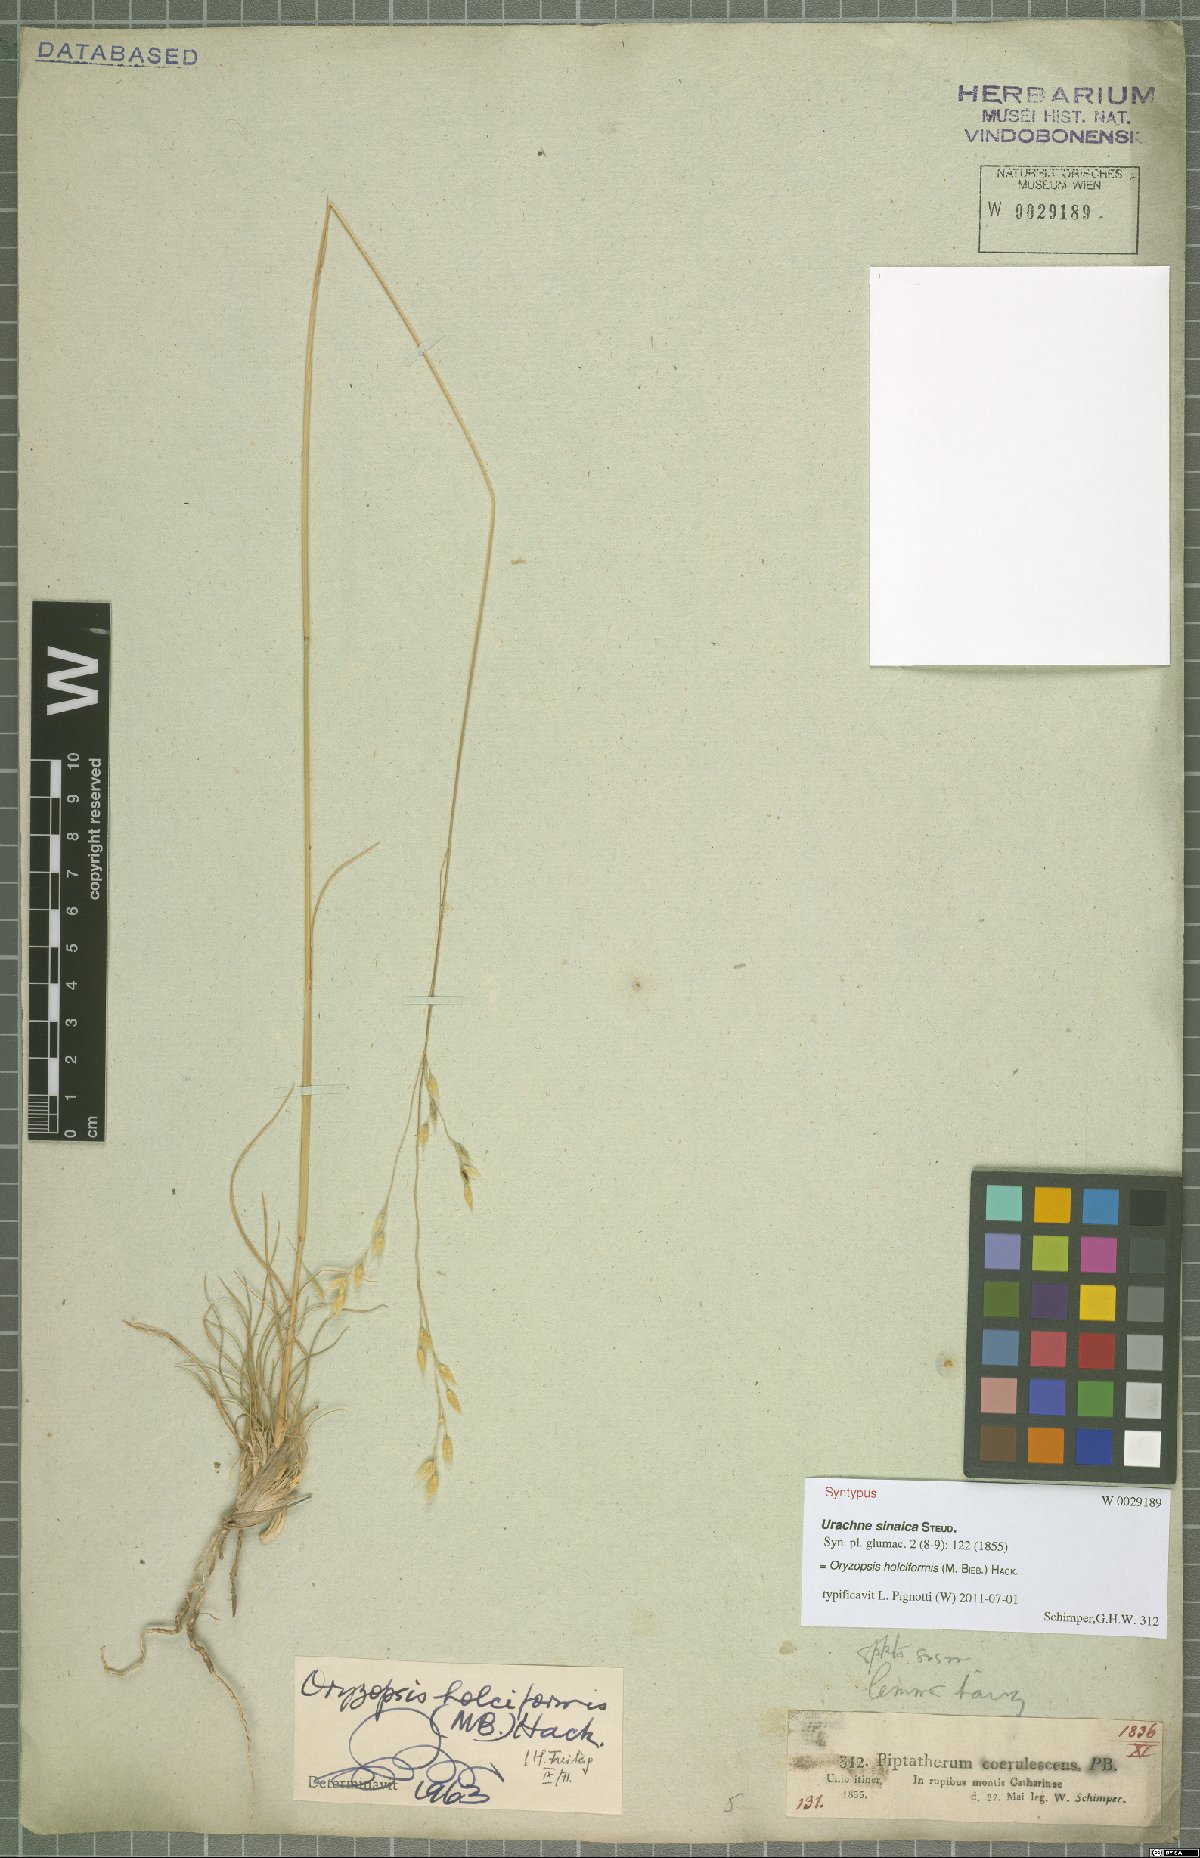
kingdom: Plantae
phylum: Tracheophyta
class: Liliopsida
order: Poales
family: Poaceae
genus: Piptatherum
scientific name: Piptatherum holciforme
